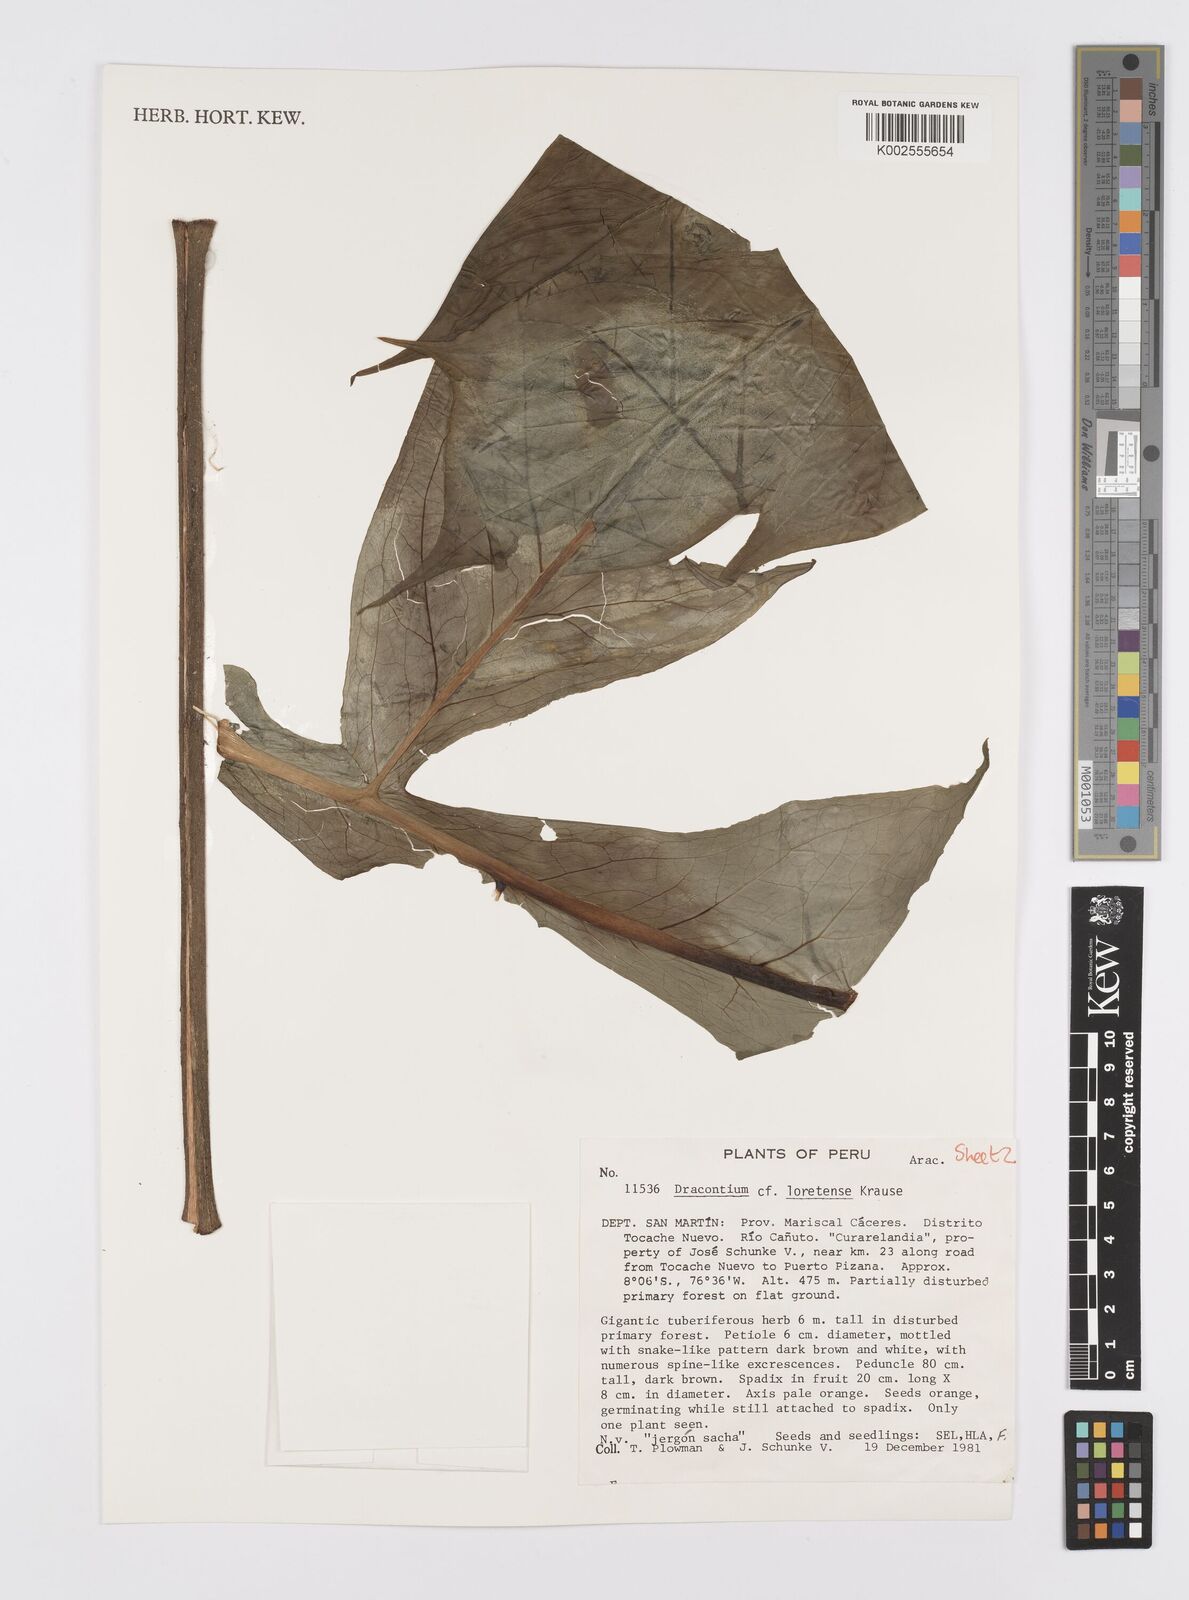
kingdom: Plantae
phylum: Tracheophyta
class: Liliopsida
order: Alismatales
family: Araceae
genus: Dracontium
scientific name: Dracontium spruceanum
